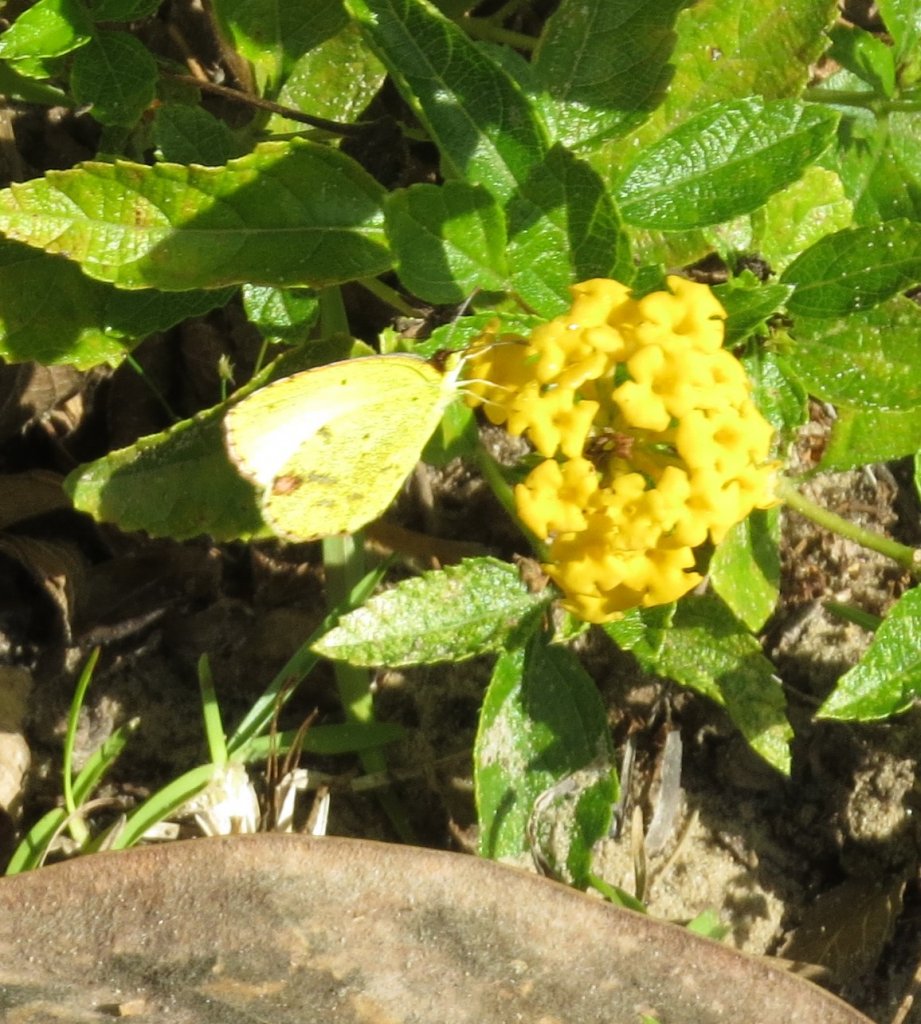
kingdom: Animalia
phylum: Arthropoda
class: Insecta
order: Lepidoptera
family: Pieridae
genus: Pyrisitia
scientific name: Pyrisitia lisa
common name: Little Yellow
